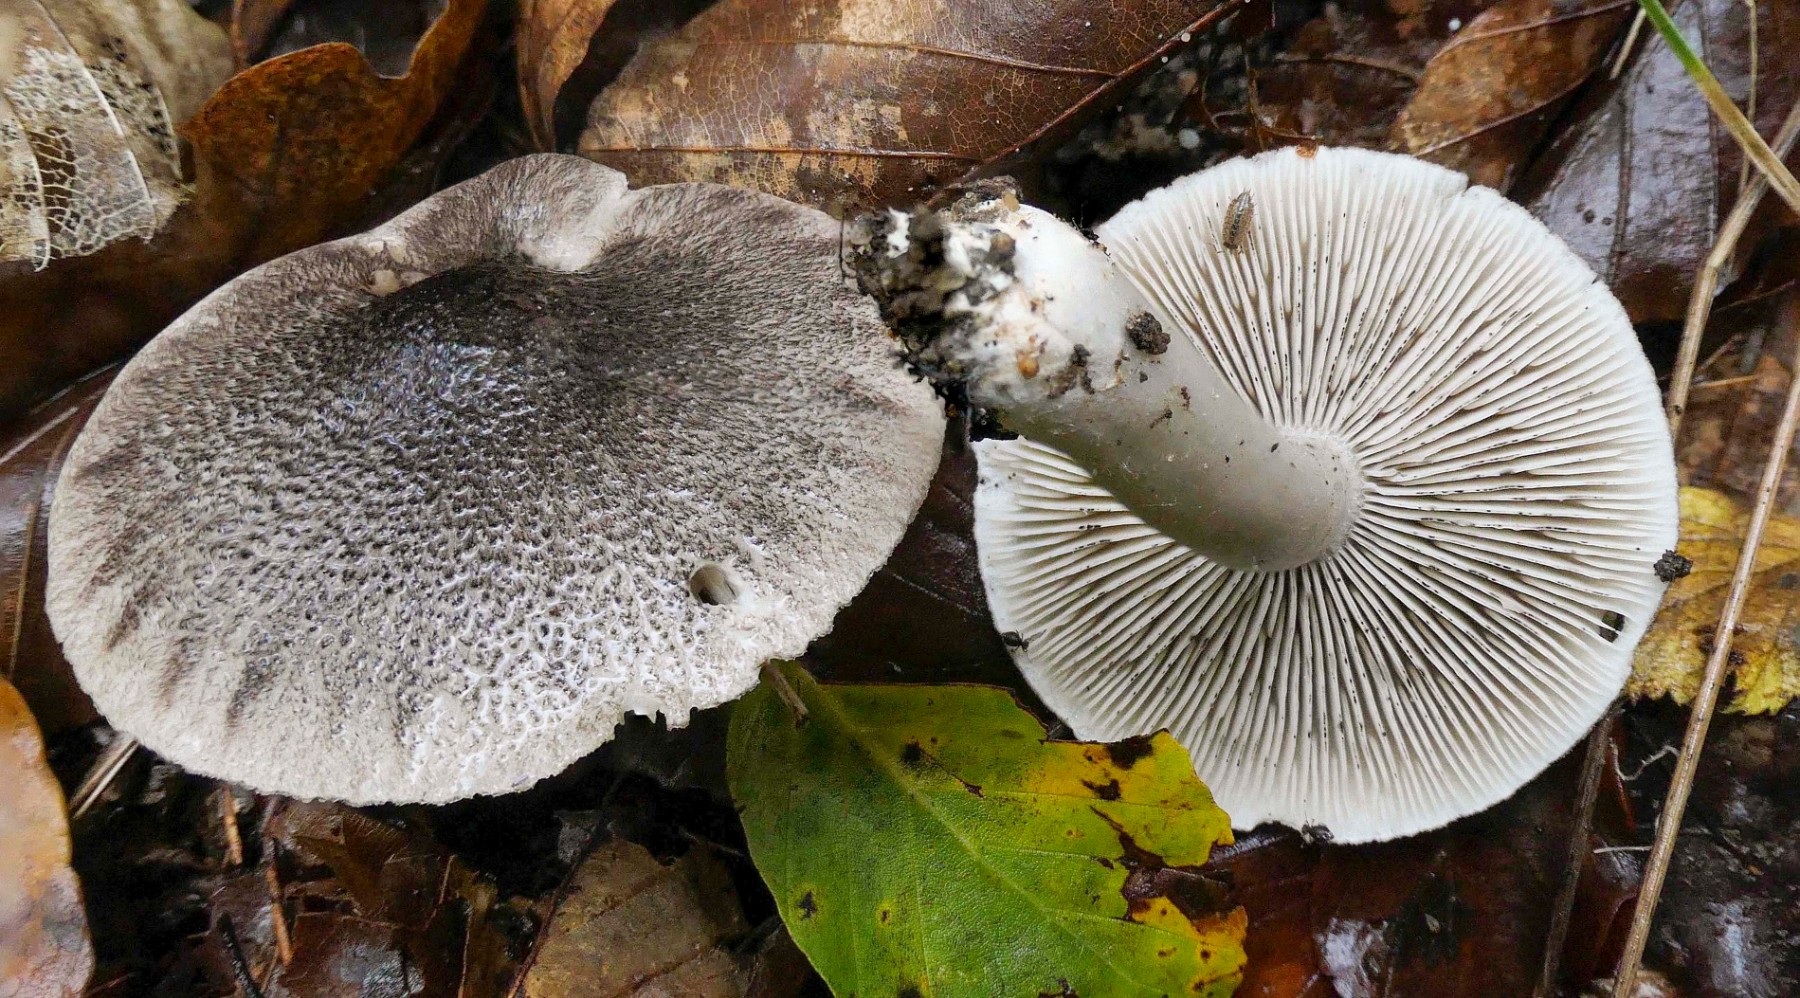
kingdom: Fungi
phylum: Basidiomycota
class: Agaricomycetes
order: Agaricales
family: Tricholomataceae
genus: Tricholoma
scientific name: Tricholoma atrosquamosum
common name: sortskællet ridderhat
